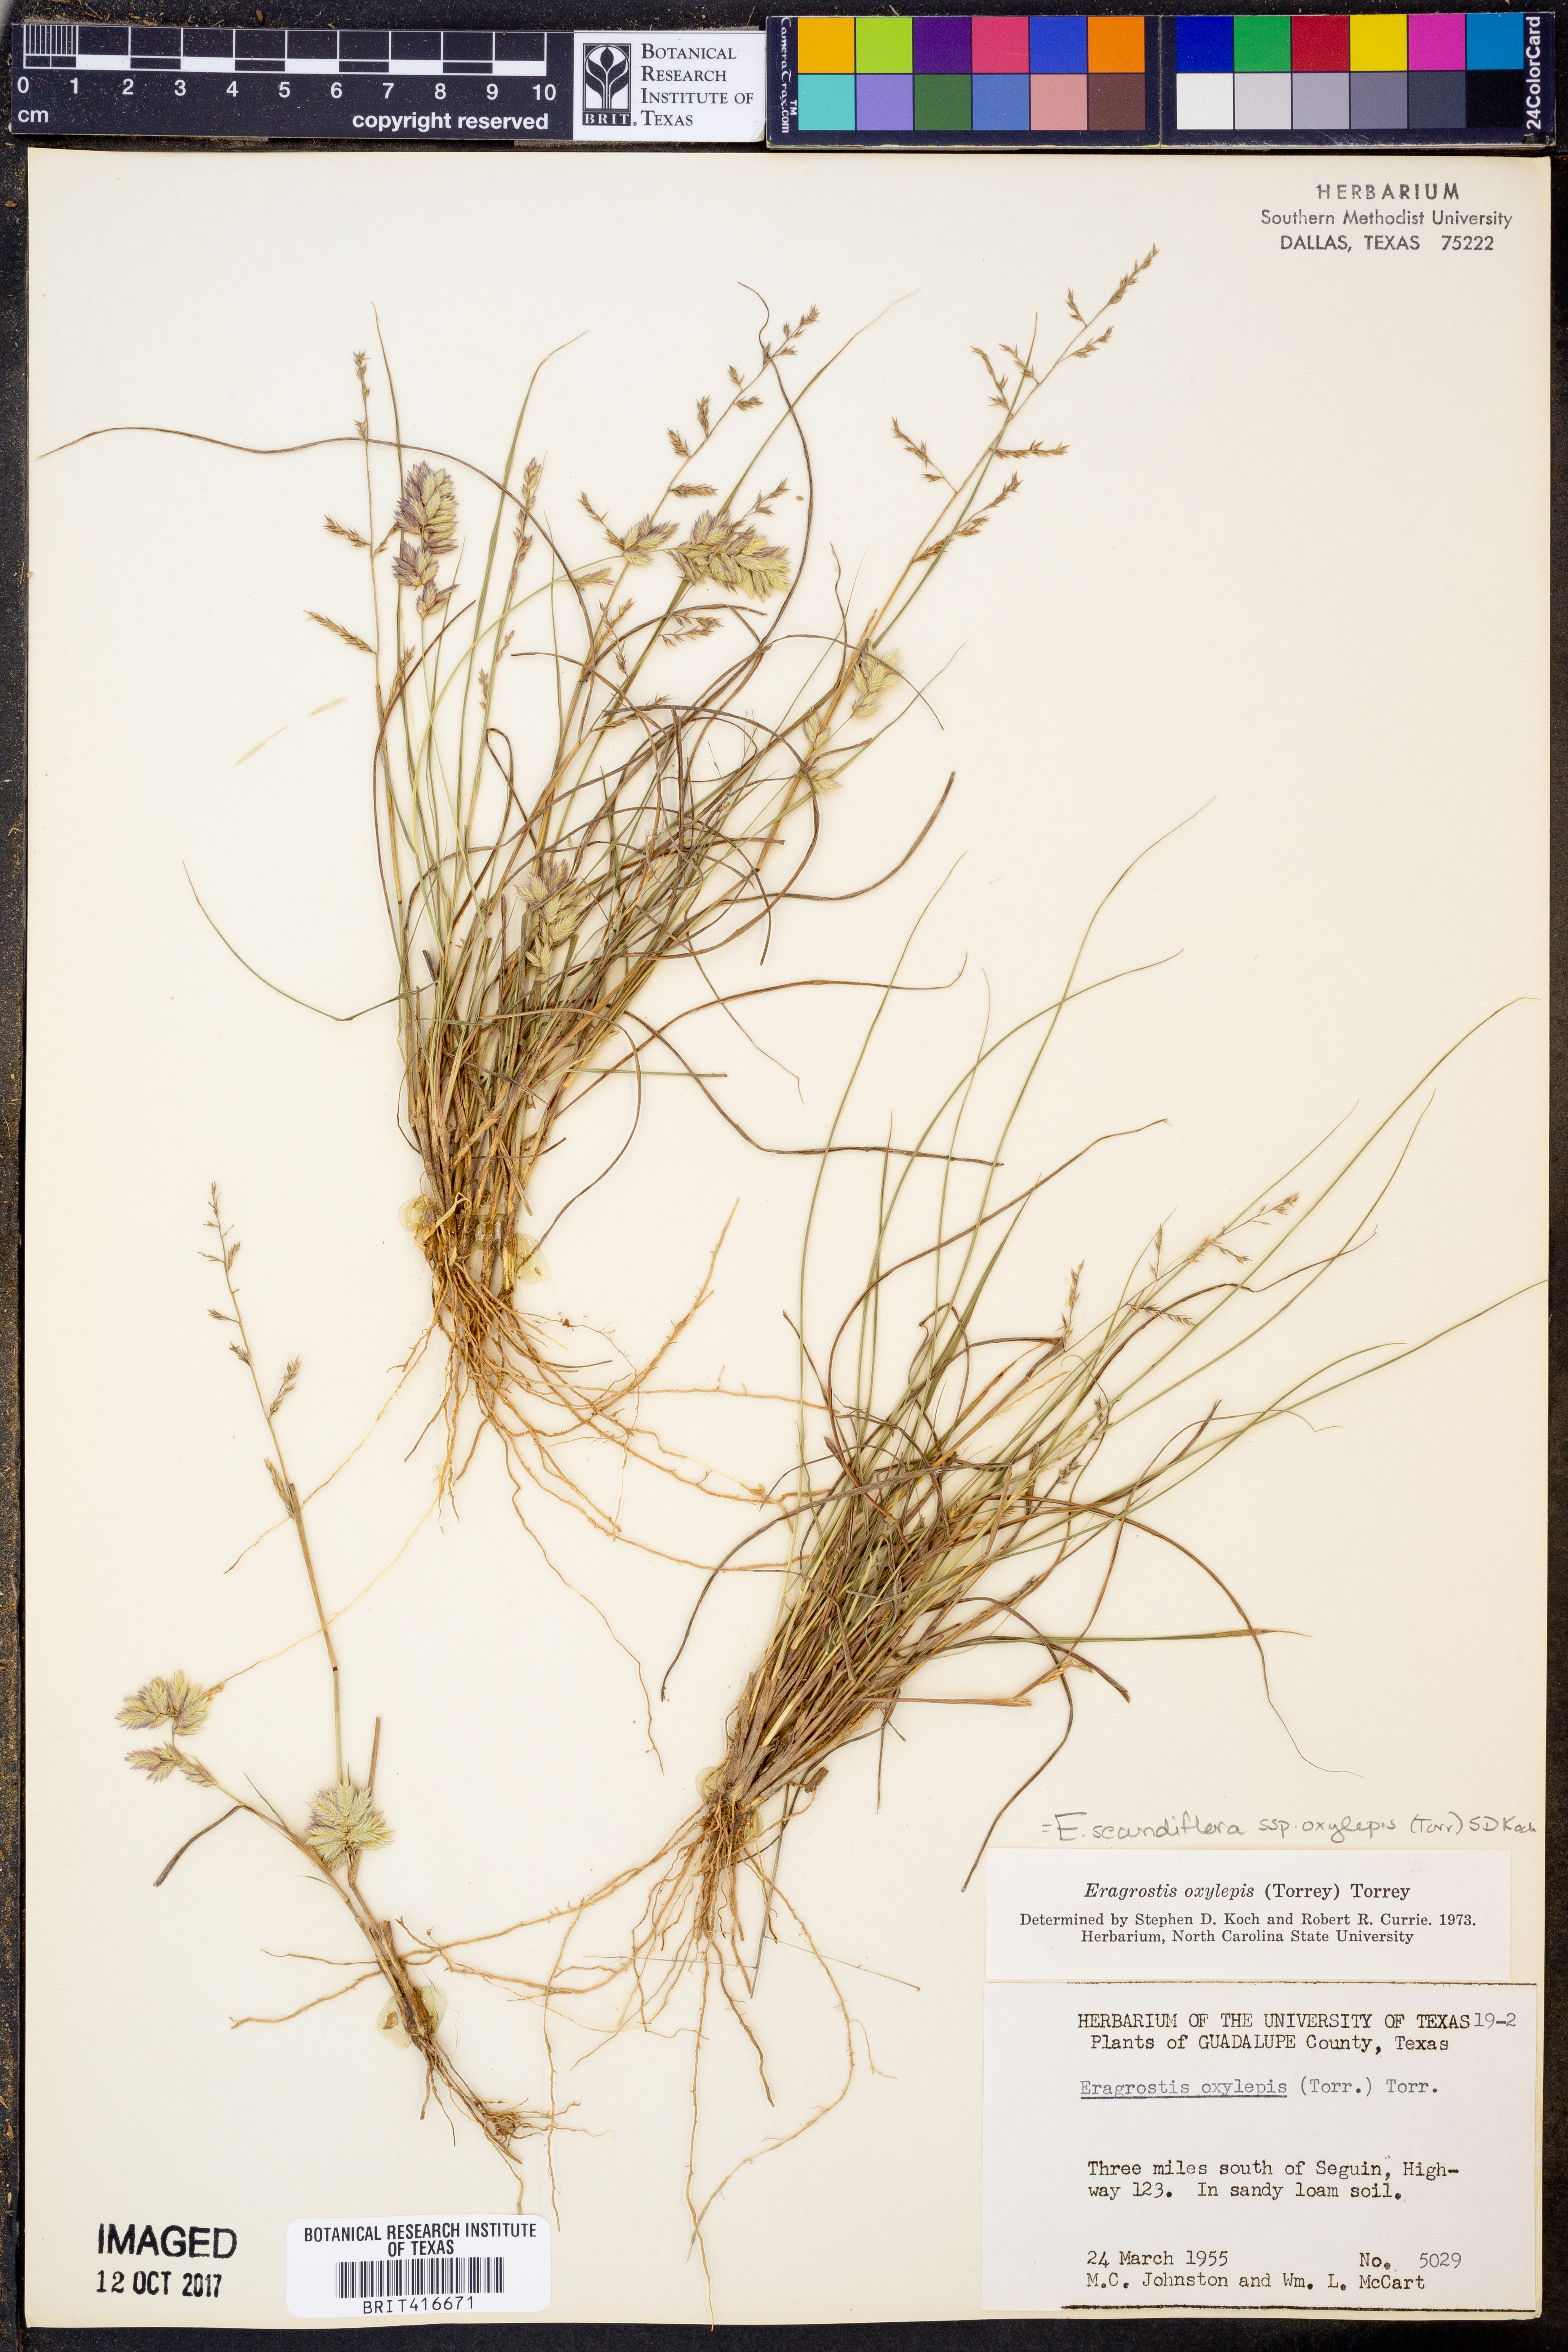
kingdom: Plantae
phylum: Tracheophyta
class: Liliopsida
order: Poales
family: Poaceae
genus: Eragrostis
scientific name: Eragrostis secundiflora
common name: Red love grass
